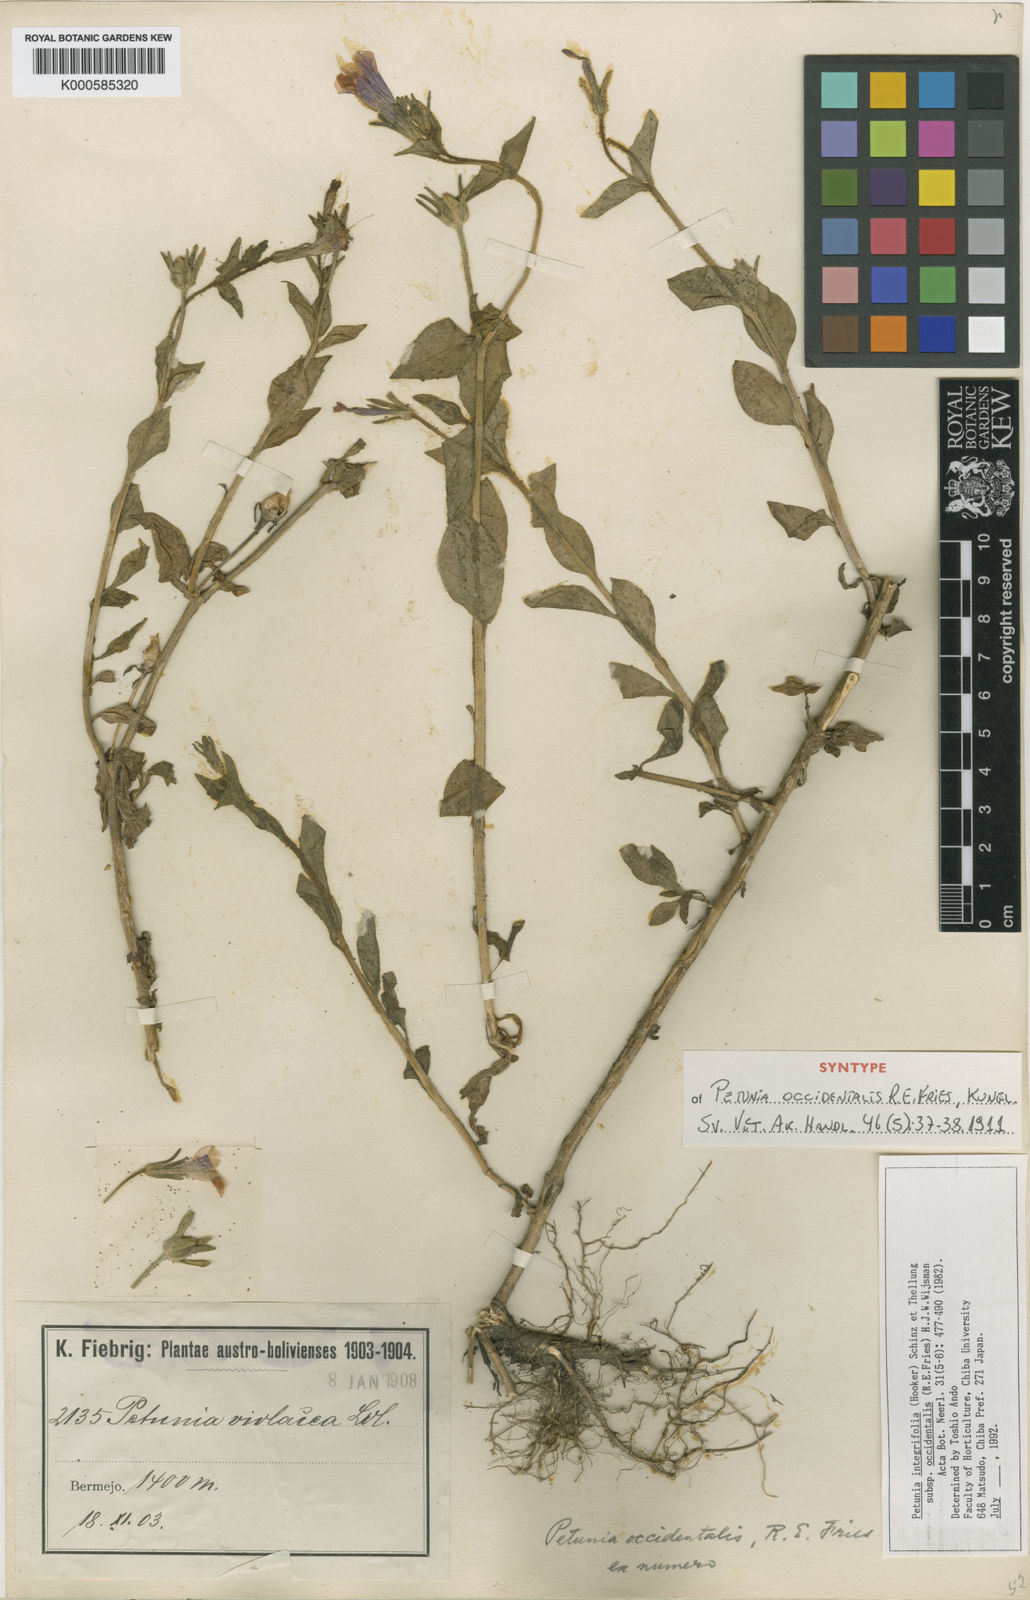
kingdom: Plantae
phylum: Tracheophyta
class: Magnoliopsida
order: Solanales
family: Solanaceae
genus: Petunia
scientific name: Petunia occidentalis
